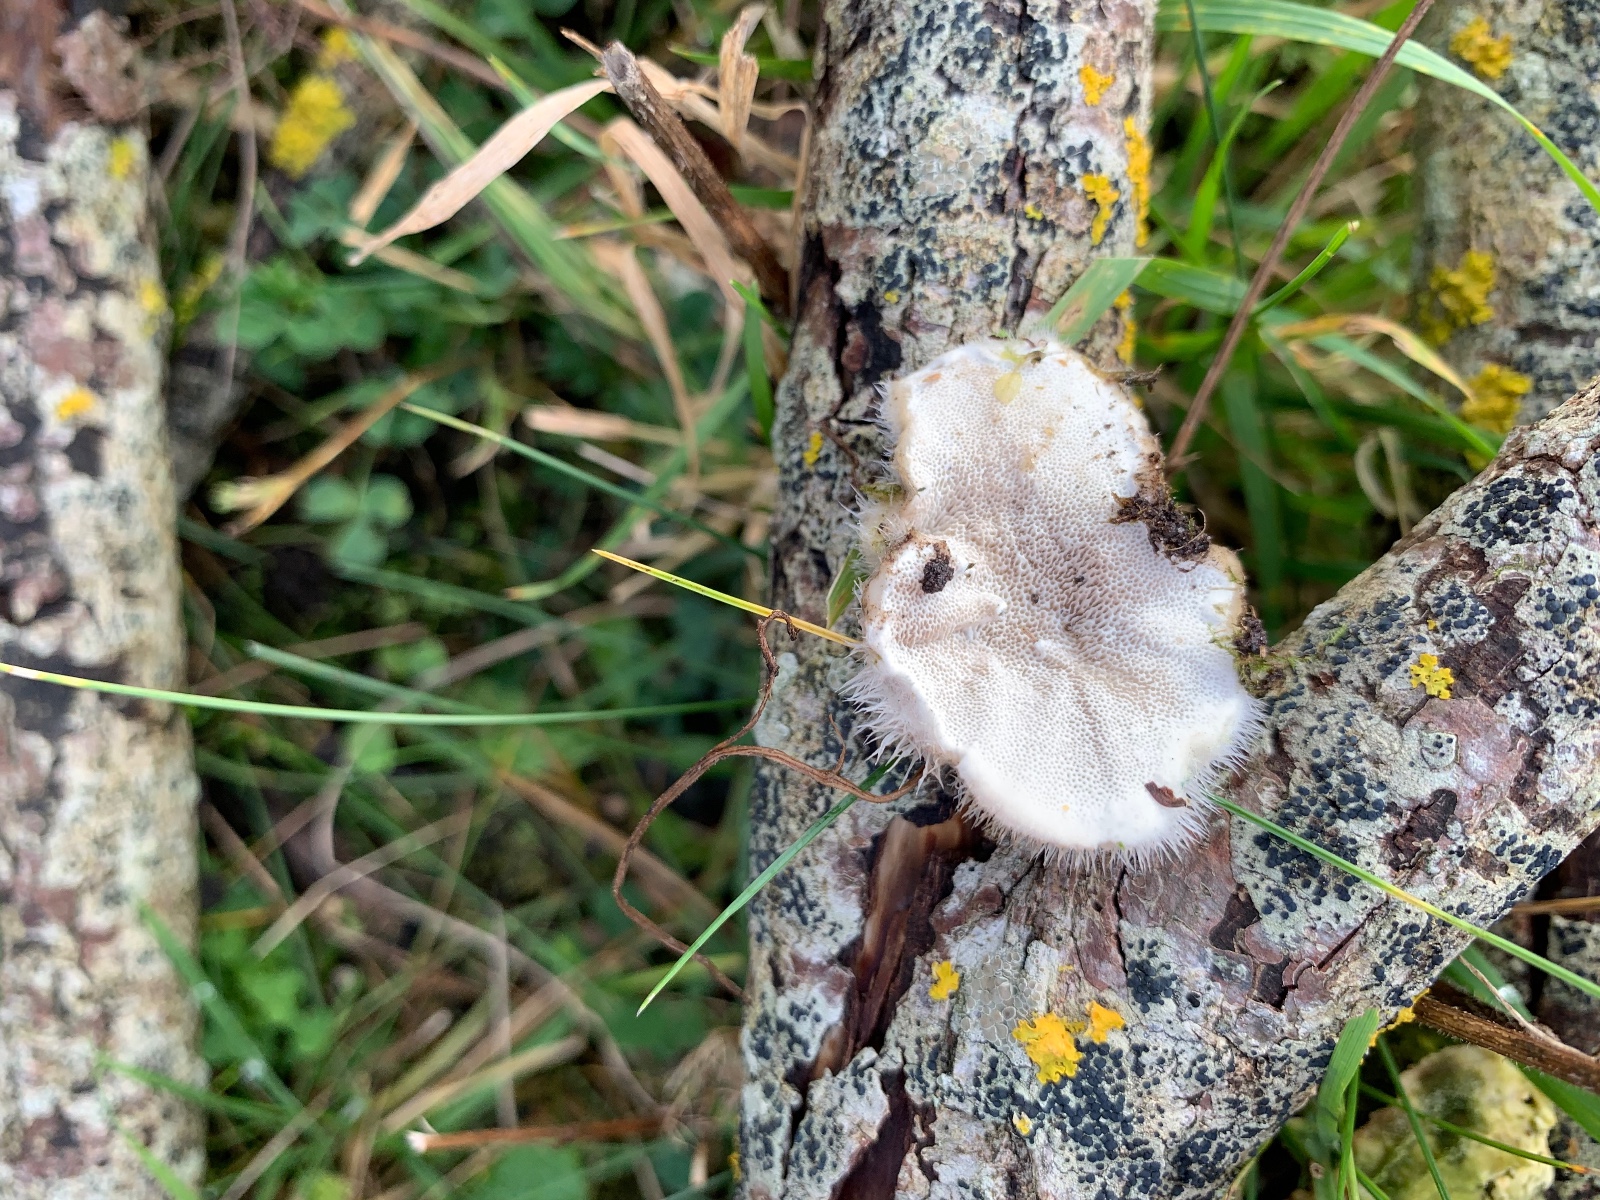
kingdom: Fungi
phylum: Basidiomycota
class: Agaricomycetes
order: Polyporales
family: Polyporaceae
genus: Trametes
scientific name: Trametes hirsuta
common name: håret læderporesvamp
